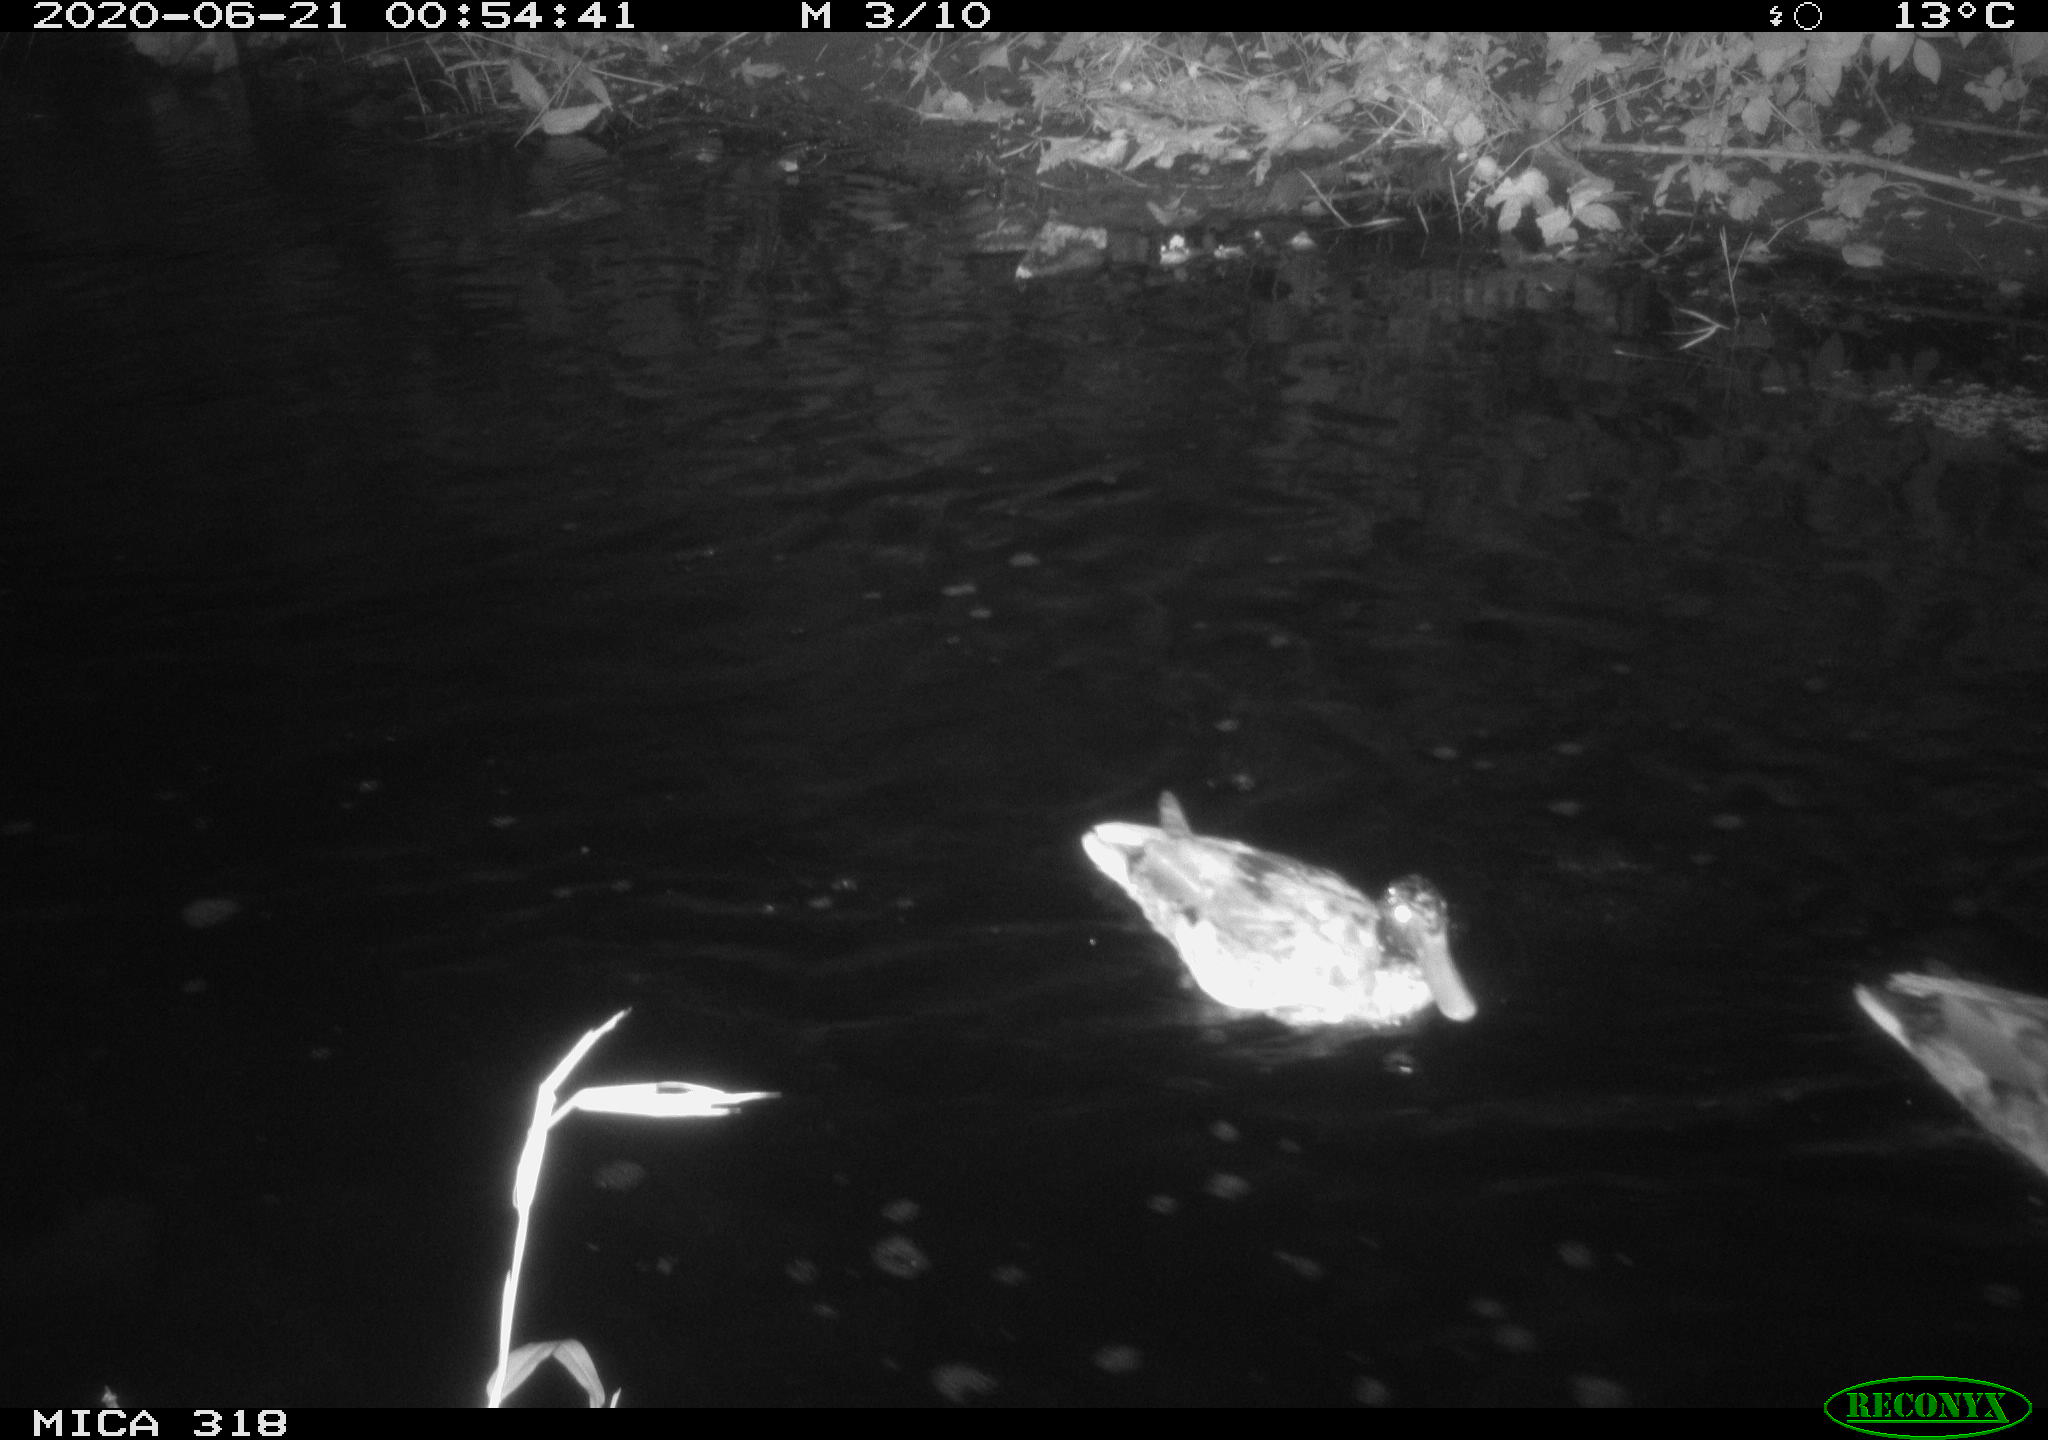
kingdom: Animalia
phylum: Chordata
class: Aves
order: Anseriformes
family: Anatidae
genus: Anas
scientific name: Anas platyrhynchos
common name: Mallard
